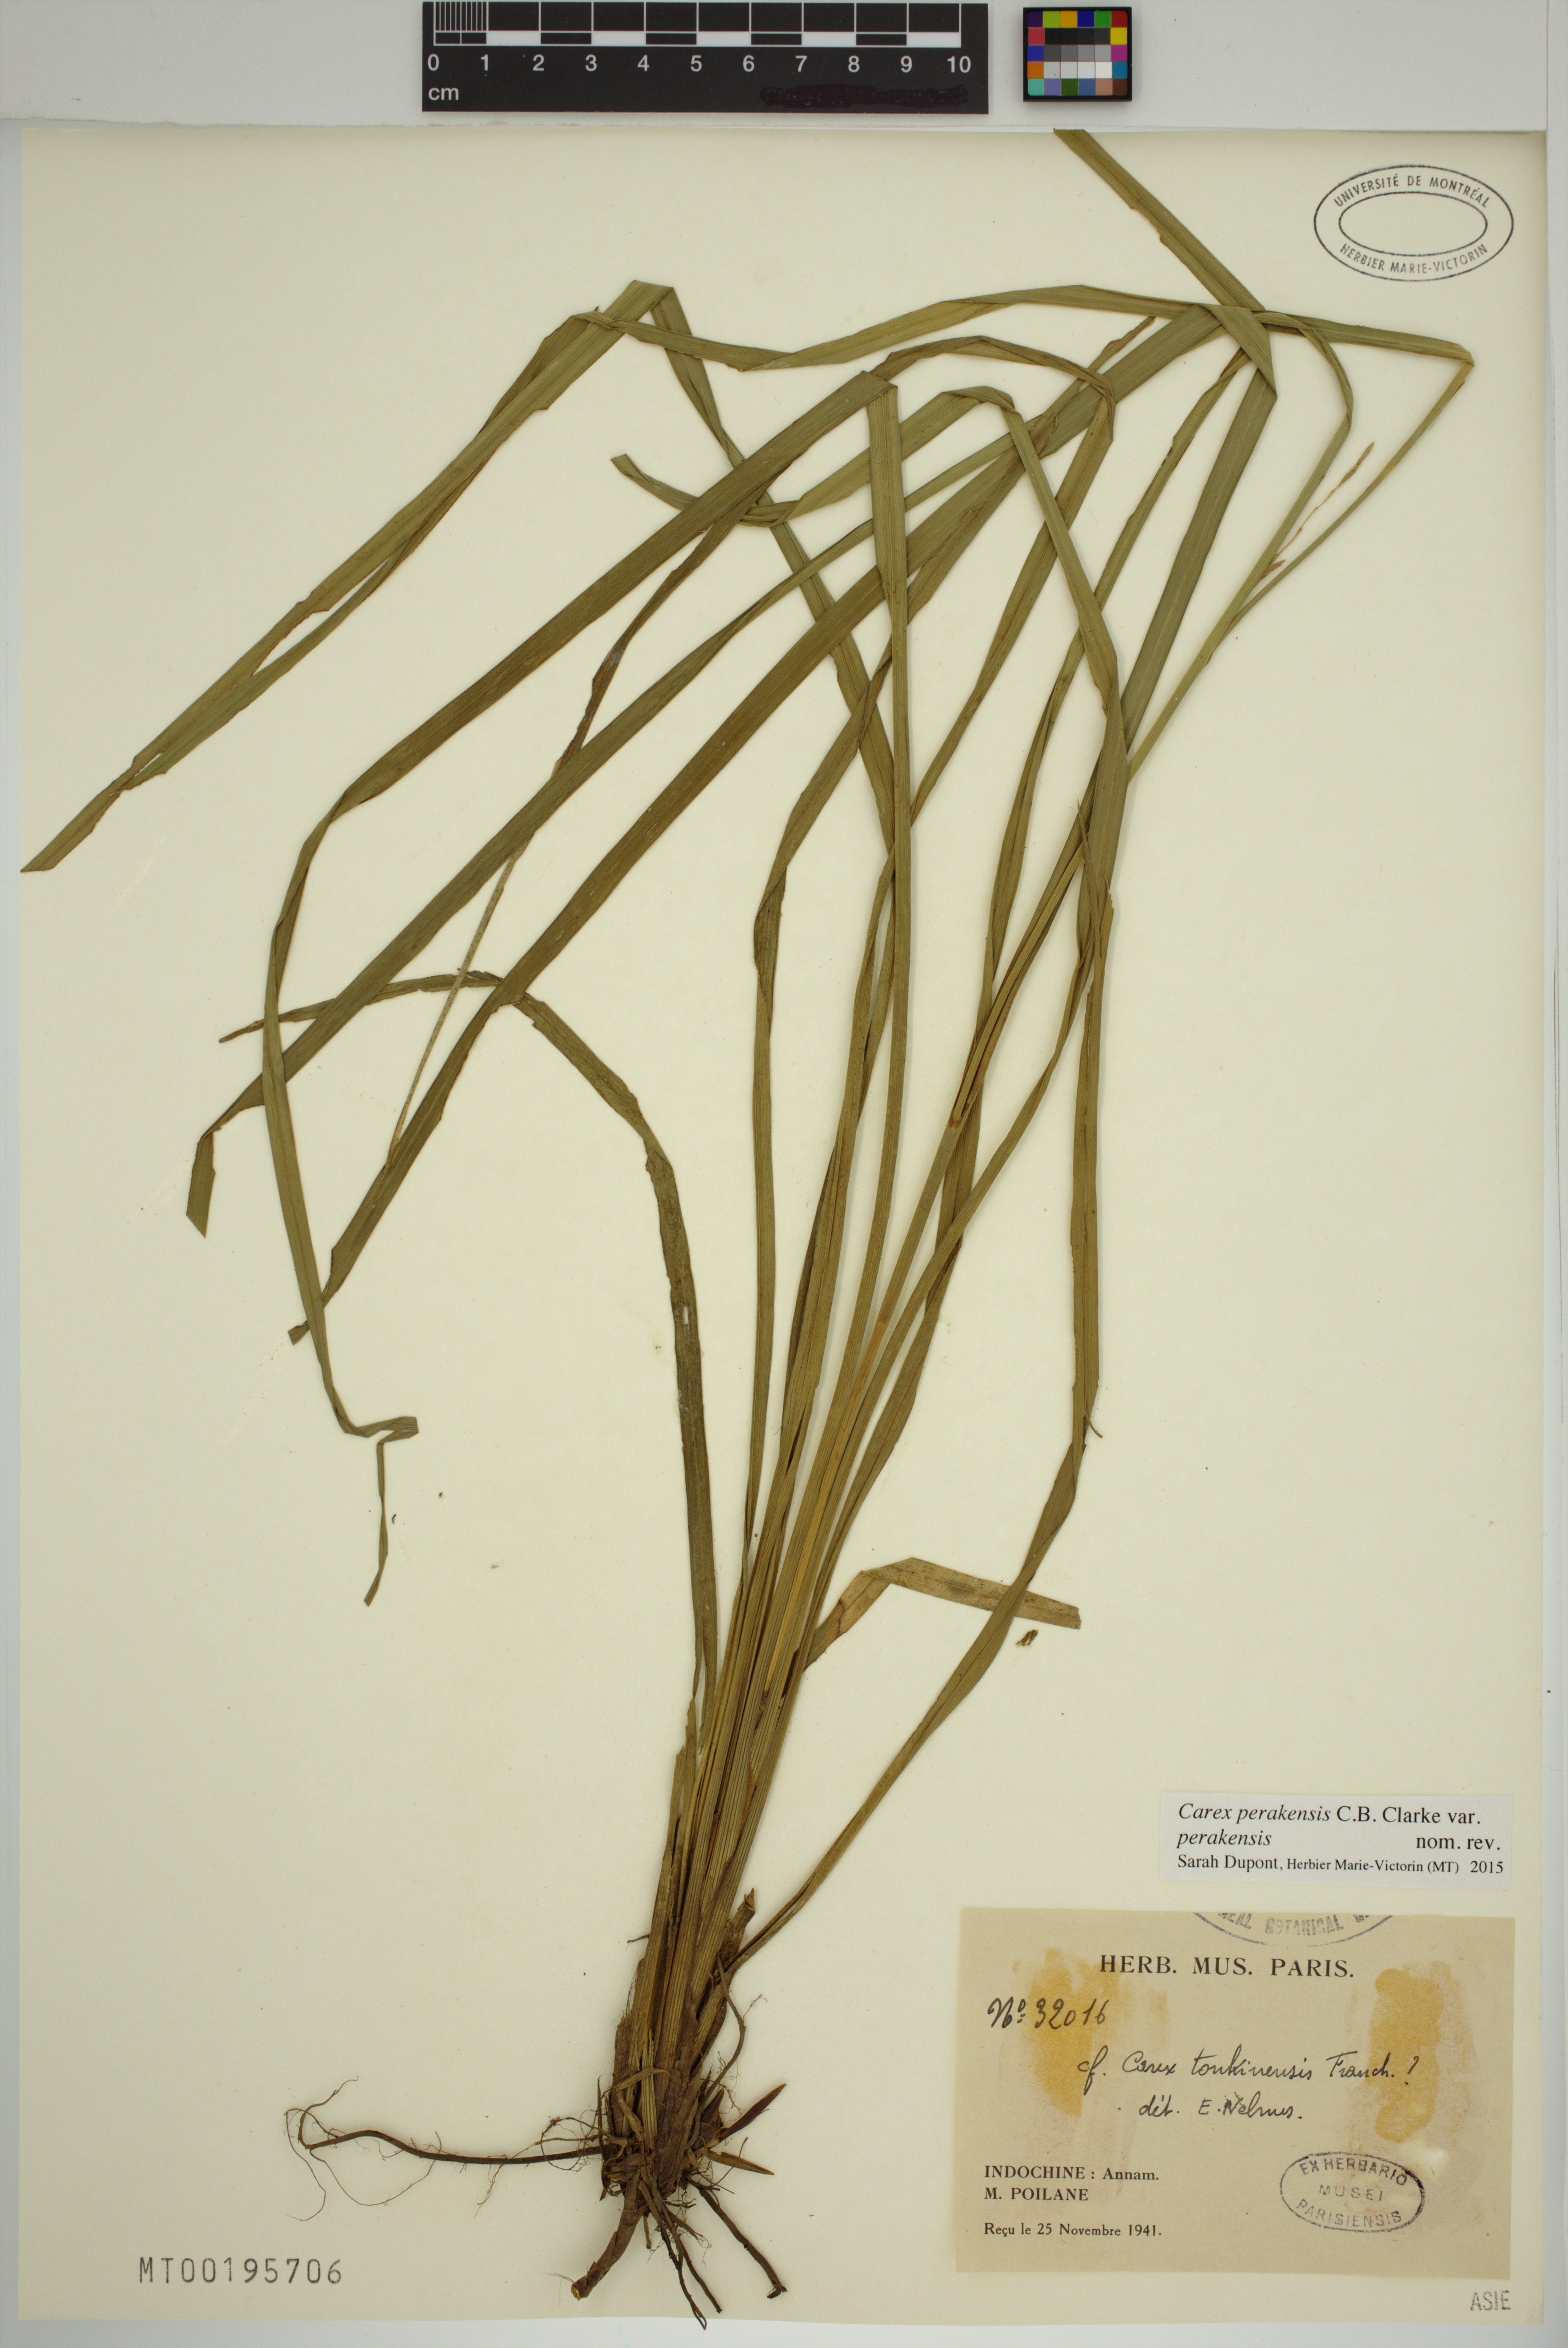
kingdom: Plantae
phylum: Tracheophyta
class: Liliopsida
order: Poales
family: Cyperaceae
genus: Carex
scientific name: Carex perakensis
